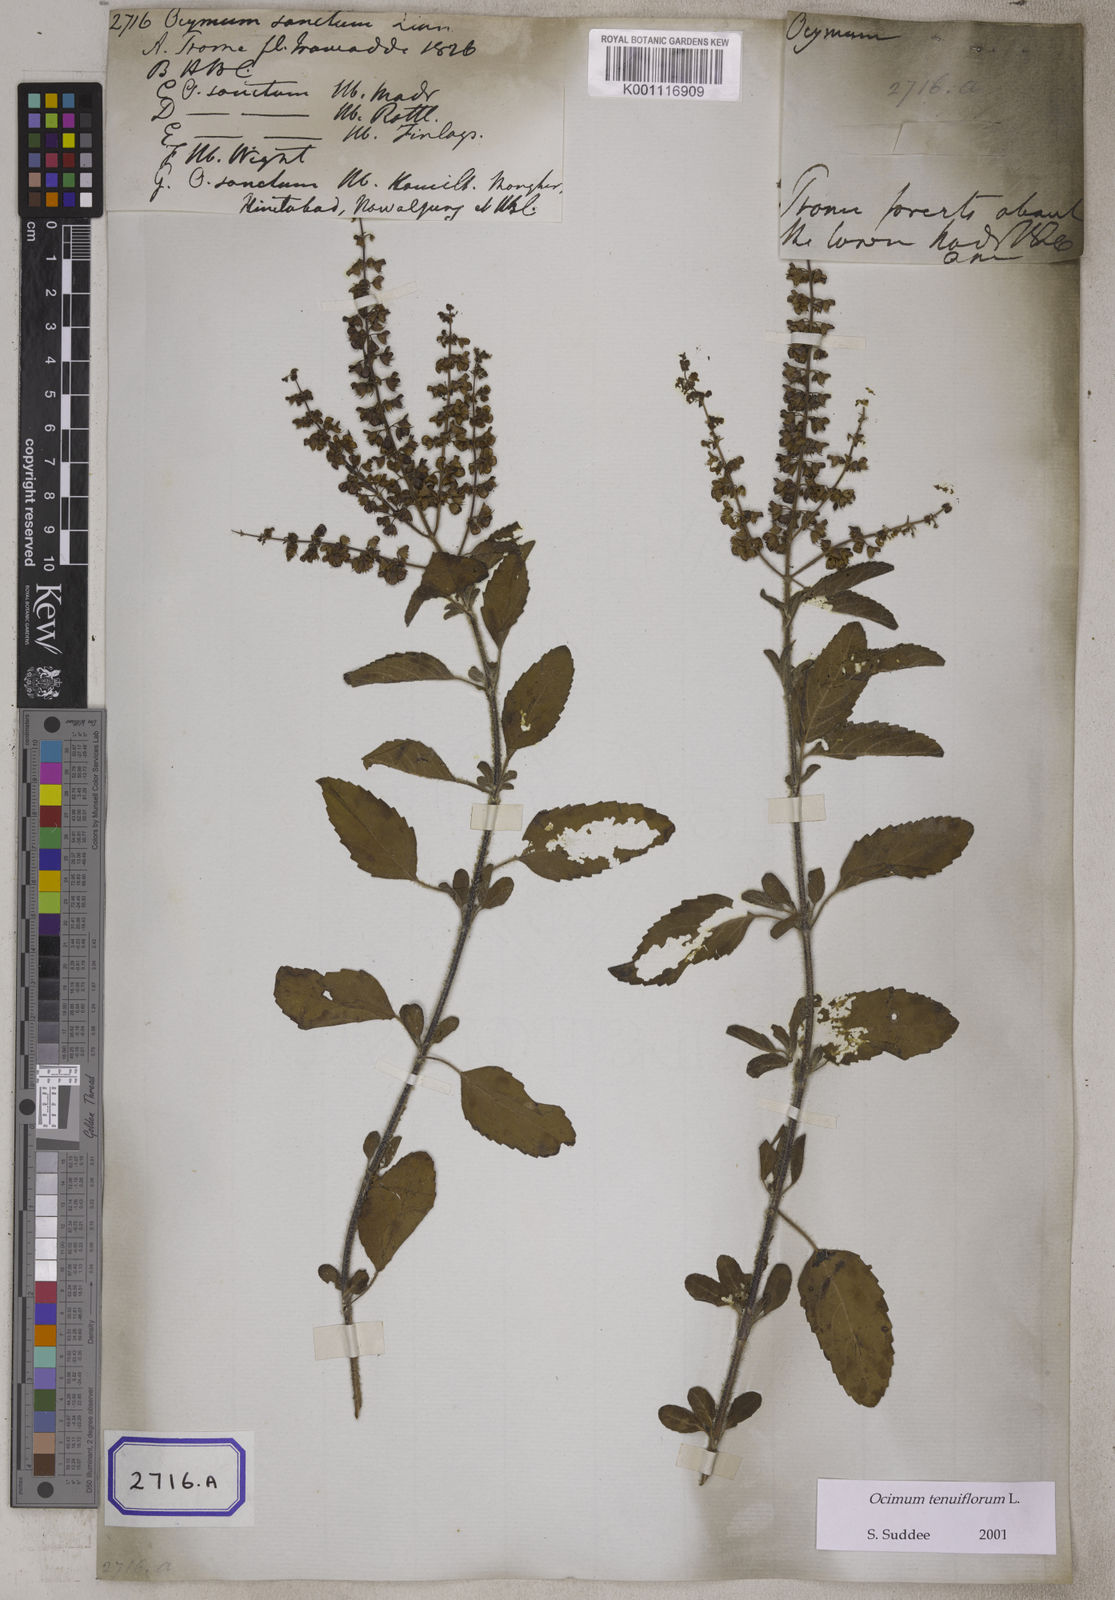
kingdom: Plantae
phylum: Tracheophyta
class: Magnoliopsida
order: Lamiales
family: Lamiaceae
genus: Ocimum
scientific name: Ocimum tenuiflorum
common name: Sacred basil
